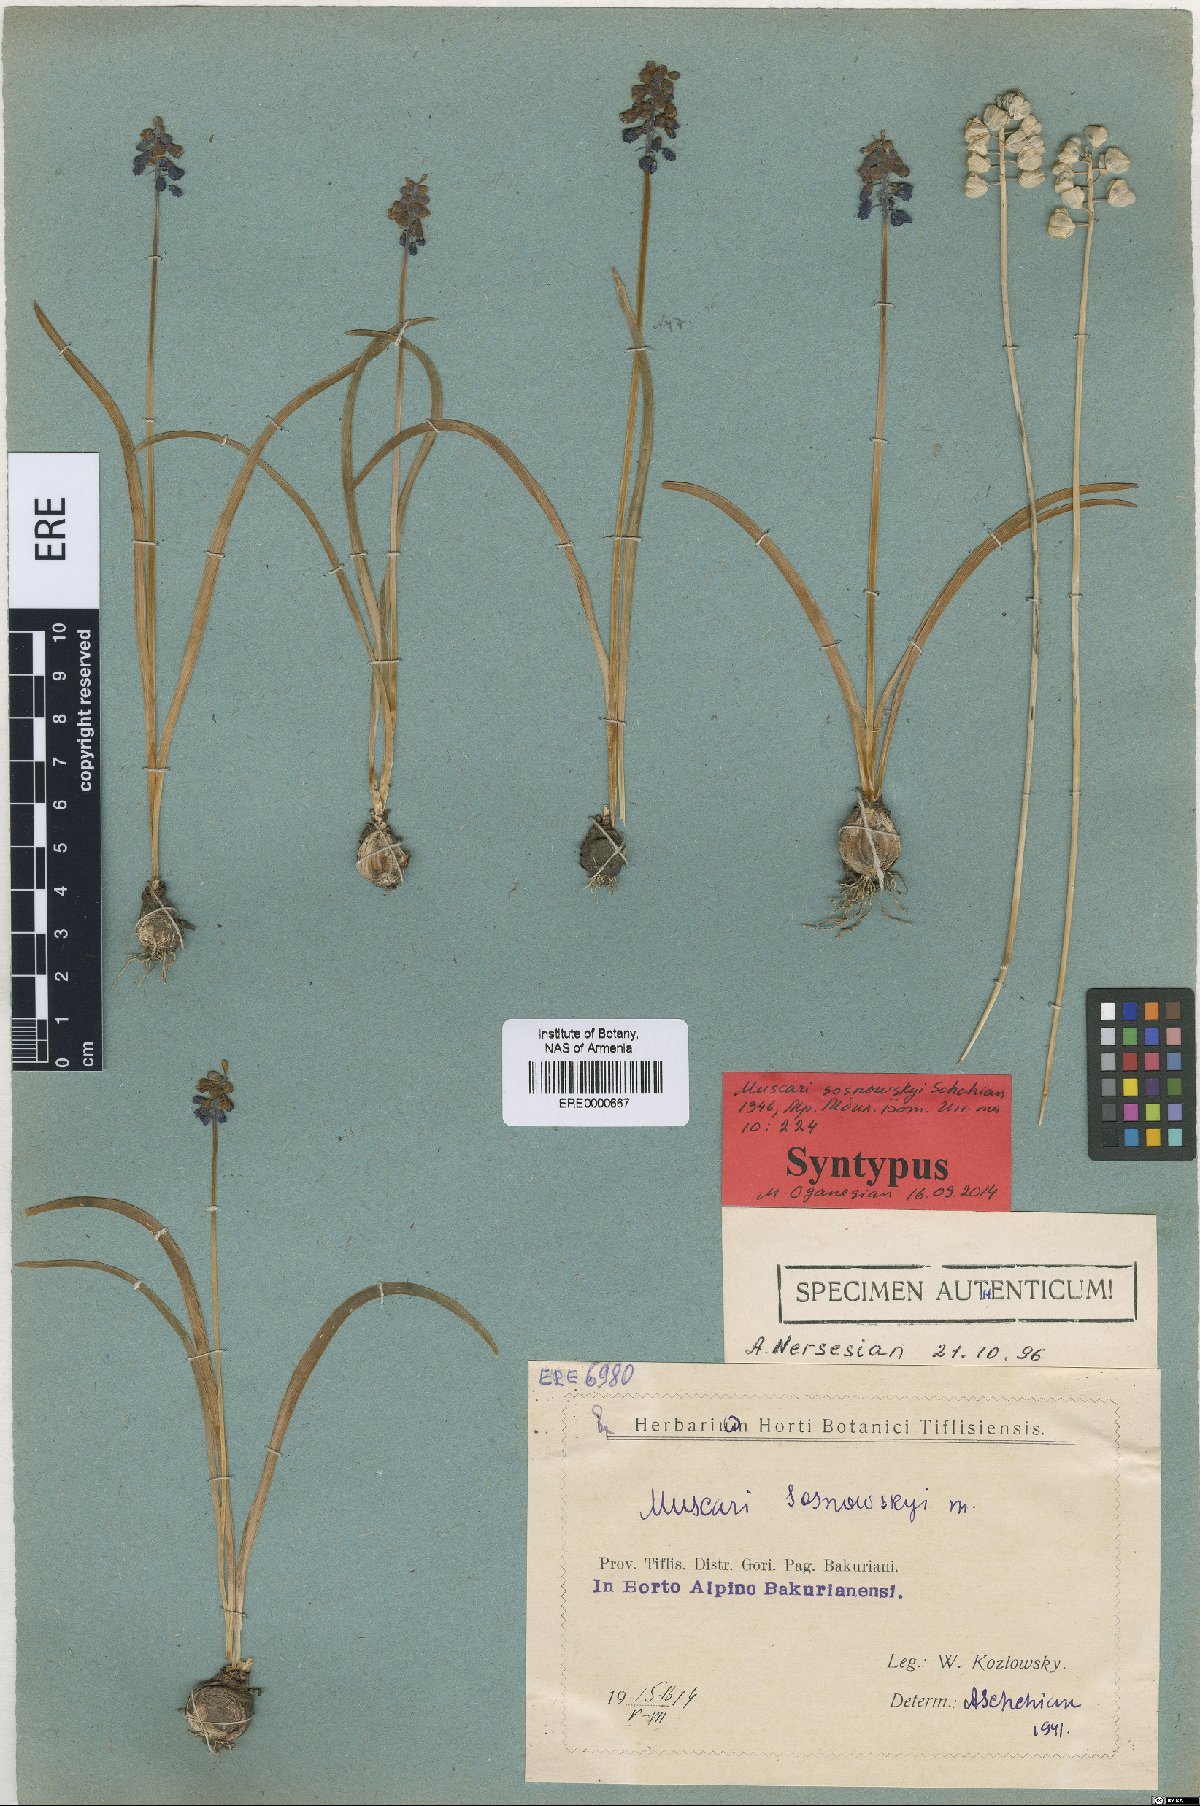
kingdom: Plantae
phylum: Tracheophyta
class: Liliopsida
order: Asparagales
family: Asparagaceae
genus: Muscari
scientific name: Muscari armeniacum
